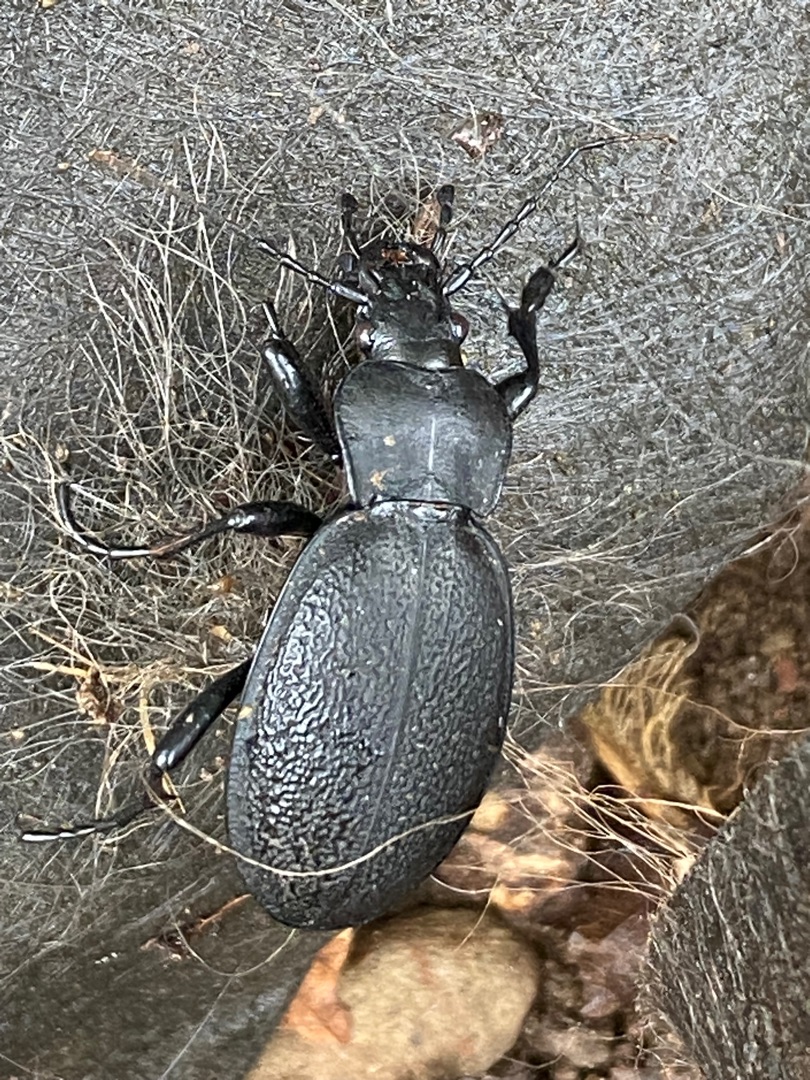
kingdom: Animalia
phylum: Arthropoda
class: Insecta
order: Coleoptera
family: Carabidae
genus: Carabus
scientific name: Carabus coriaceus
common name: Læderløber
